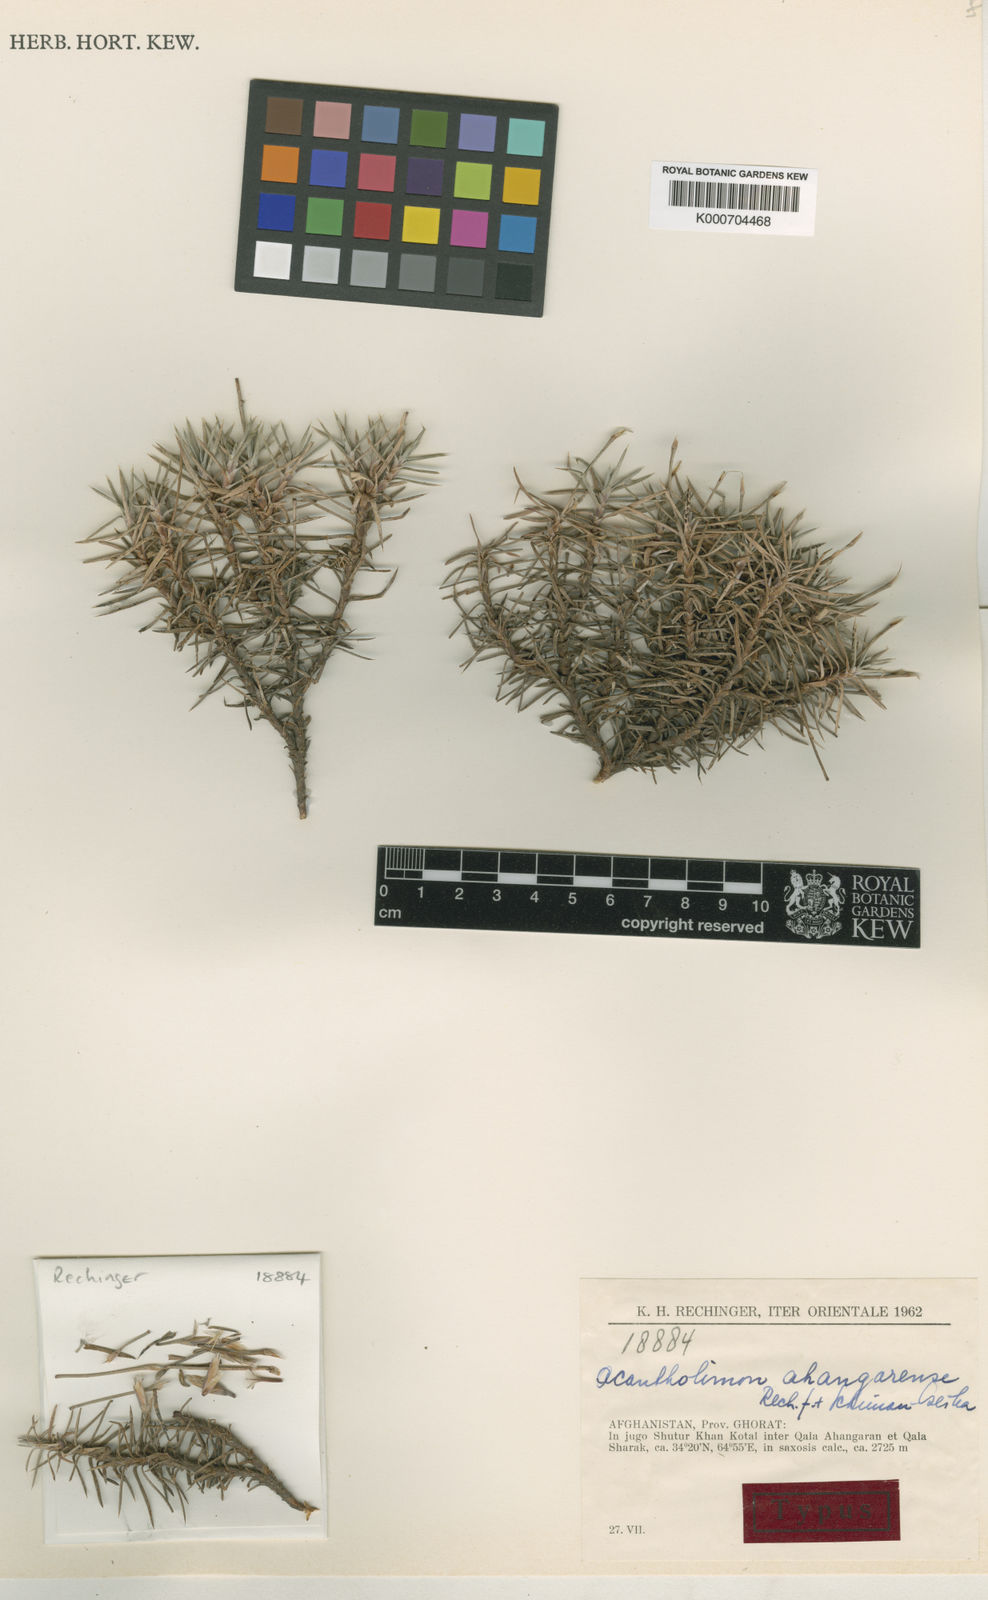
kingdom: Plantae
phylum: Tracheophyta
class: Magnoliopsida
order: Caryophyllales
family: Plumbaginaceae
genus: Acantholimon
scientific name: Acantholimon
